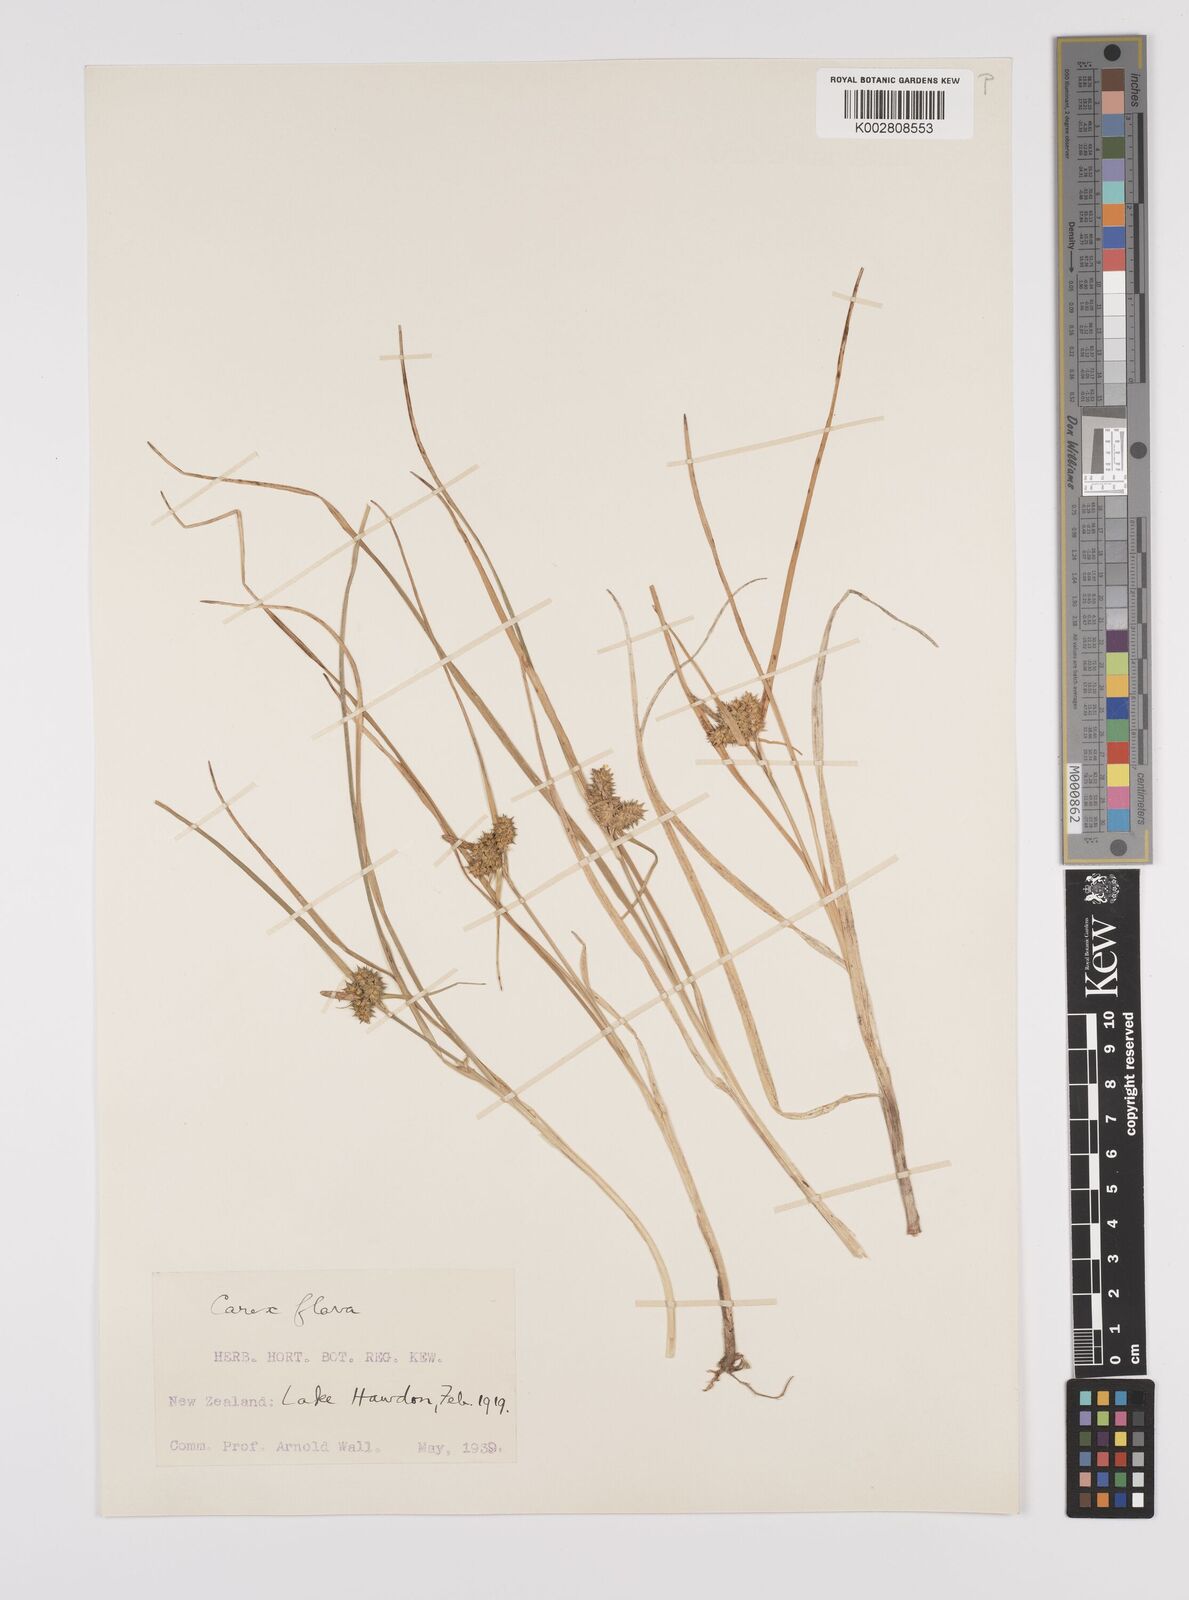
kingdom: Plantae
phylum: Tracheophyta
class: Liliopsida
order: Poales
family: Cyperaceae
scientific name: Cyperaceae
